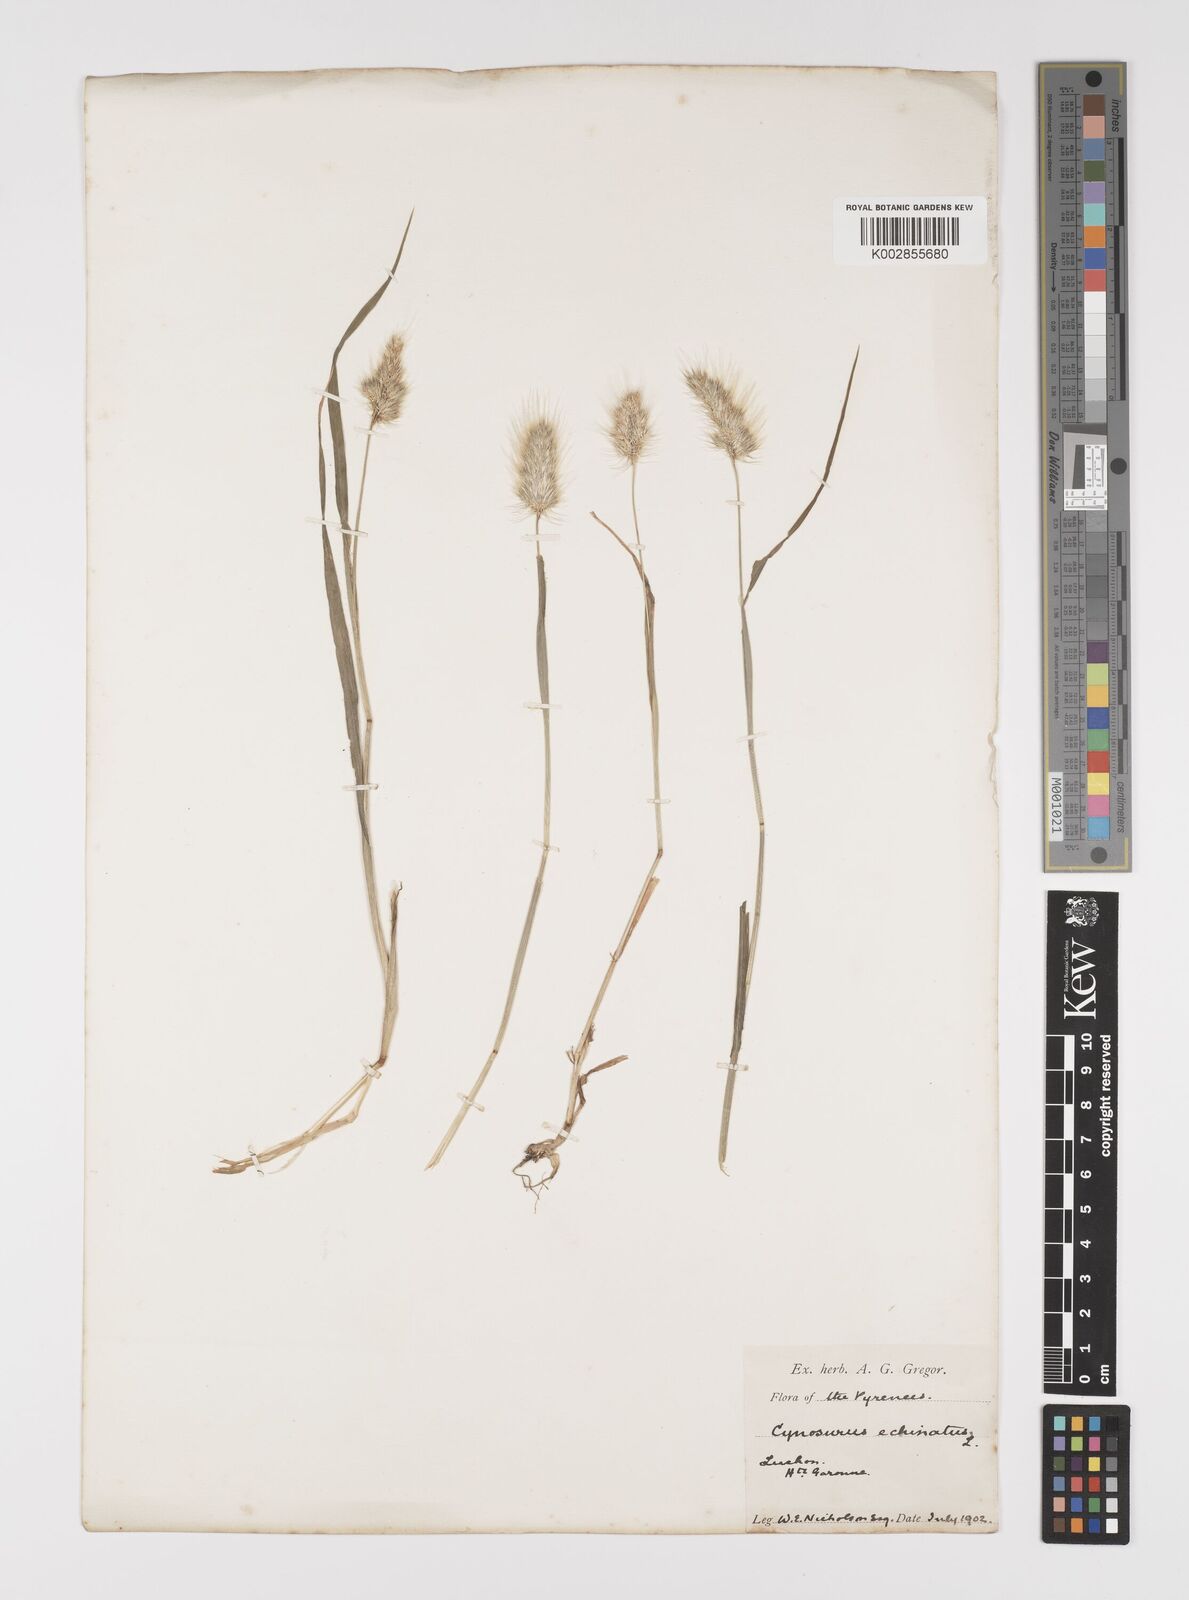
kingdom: Plantae
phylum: Tracheophyta
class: Liliopsida
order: Poales
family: Poaceae
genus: Cynosurus
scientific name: Cynosurus echinatus
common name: Rough dog's-tail
